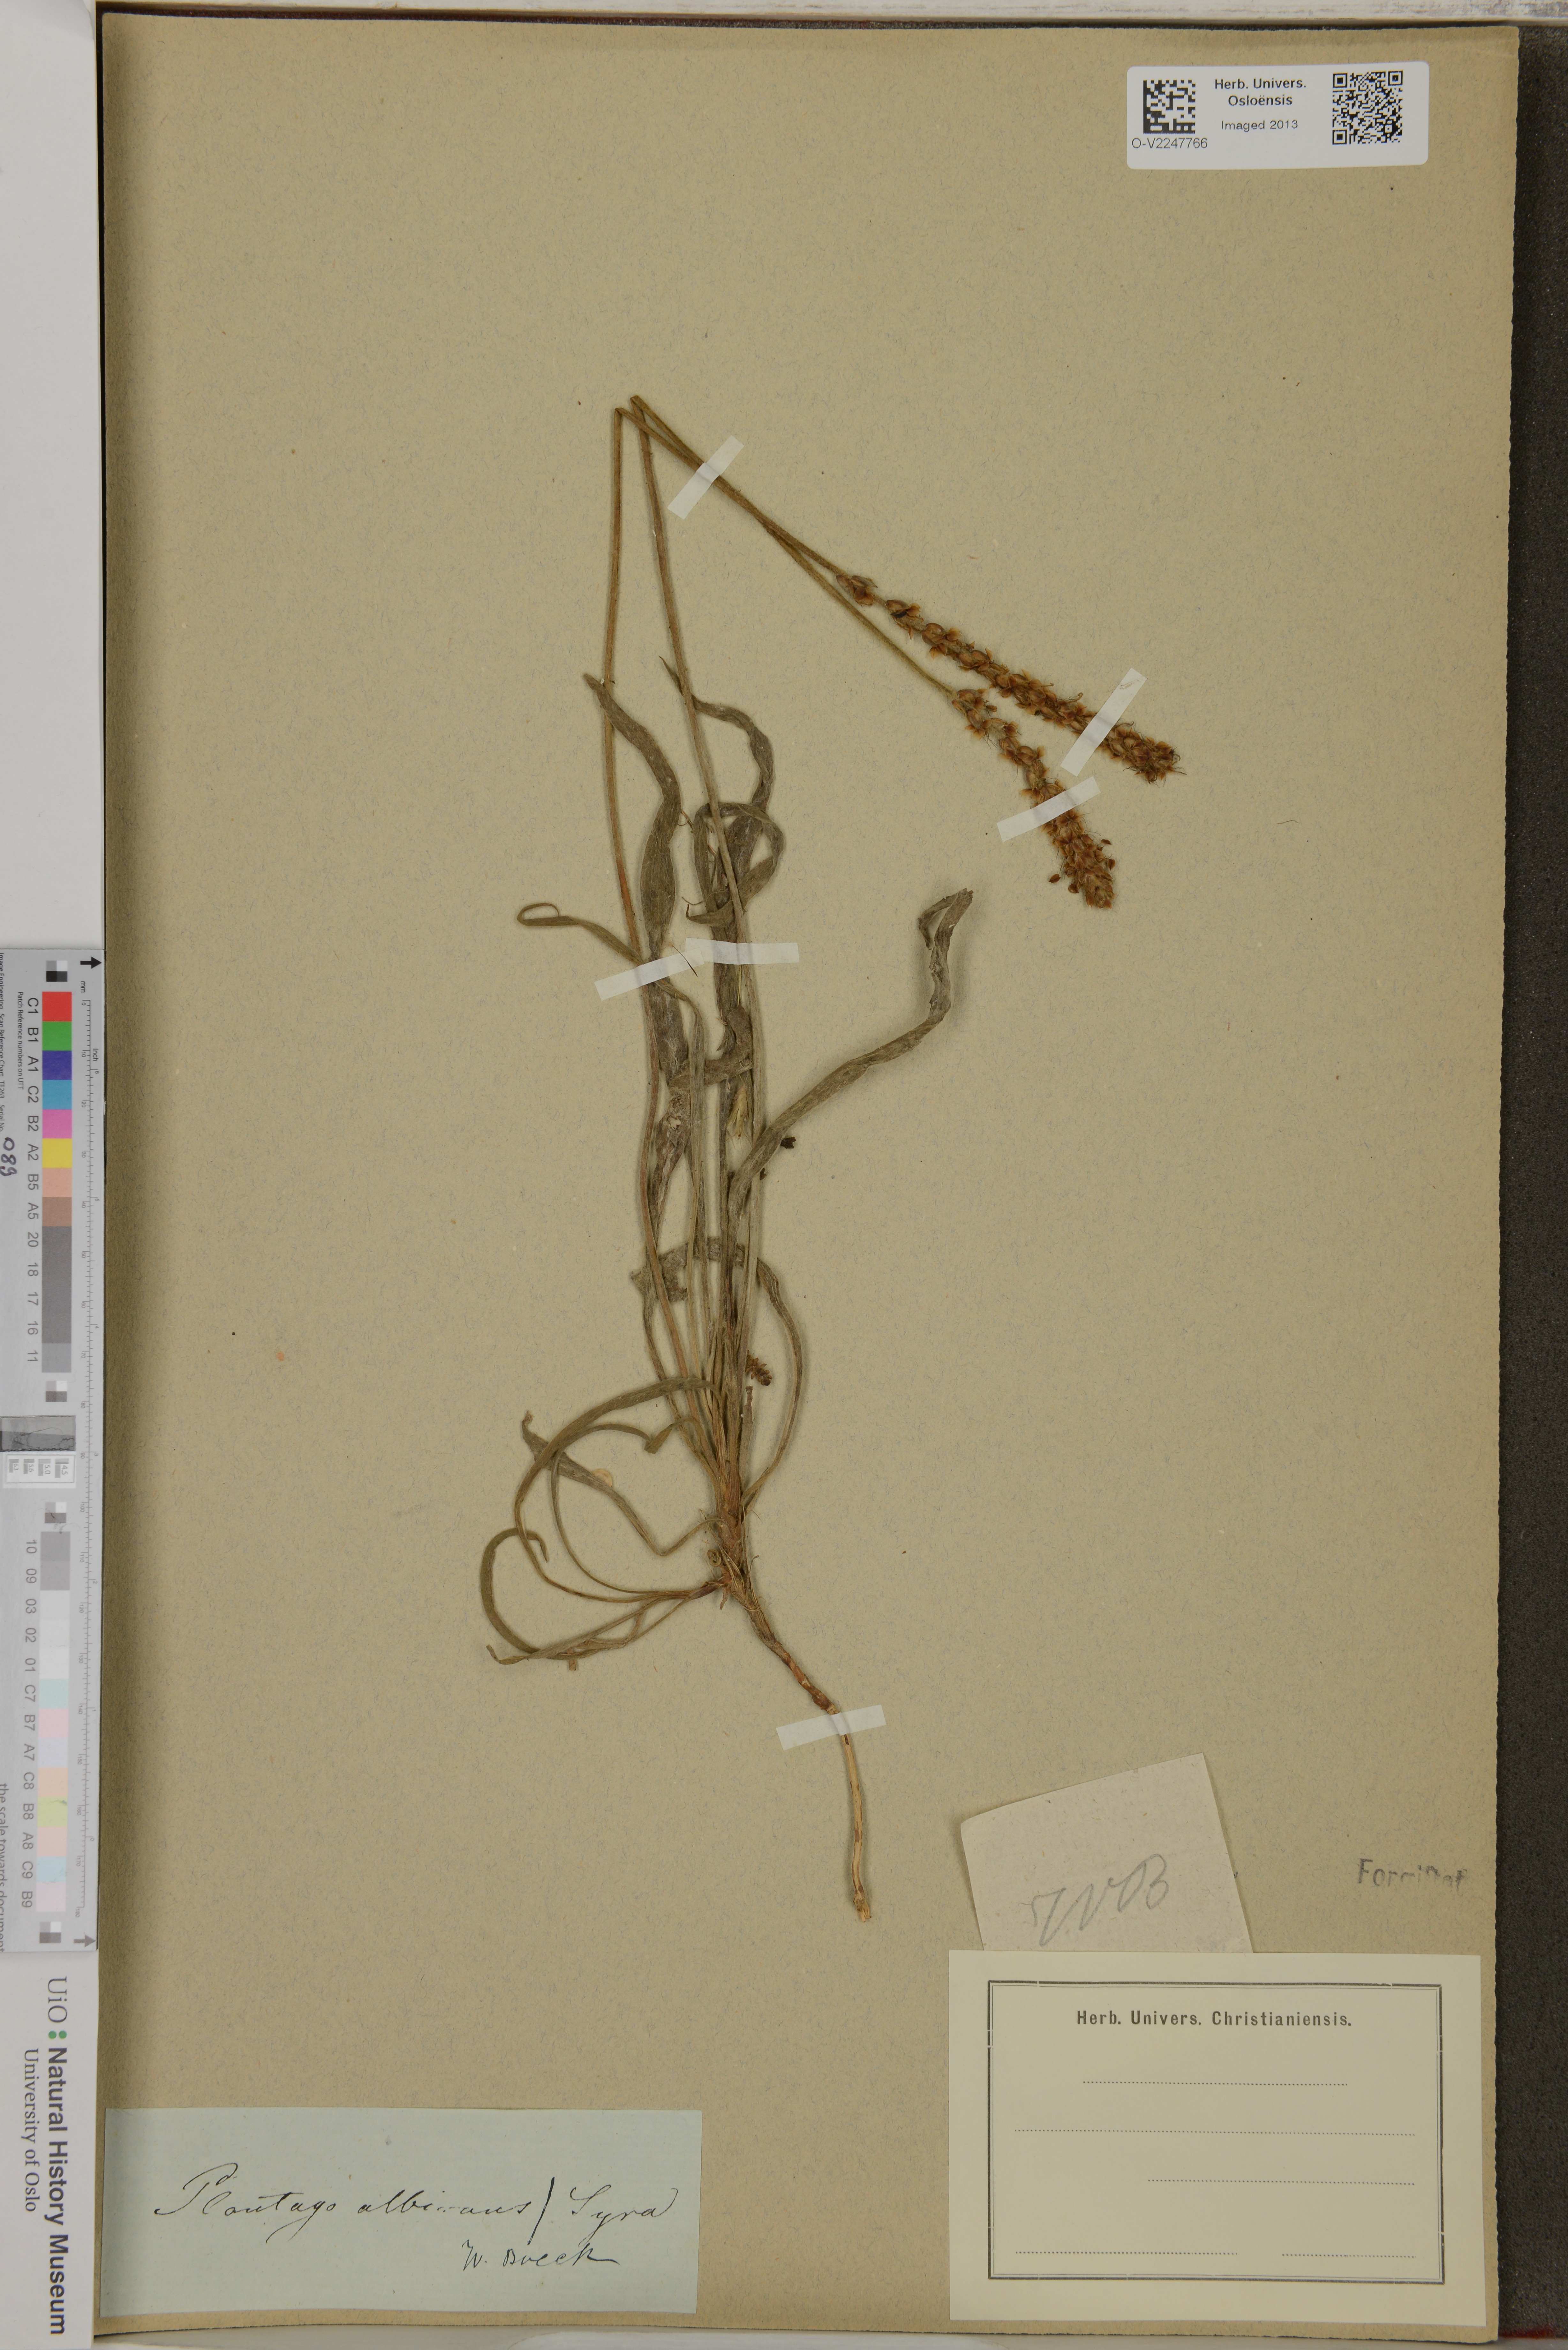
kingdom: Plantae
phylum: Tracheophyta
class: Magnoliopsida
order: Lamiales
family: Plantaginaceae
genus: Plantago
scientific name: Plantago albicans
